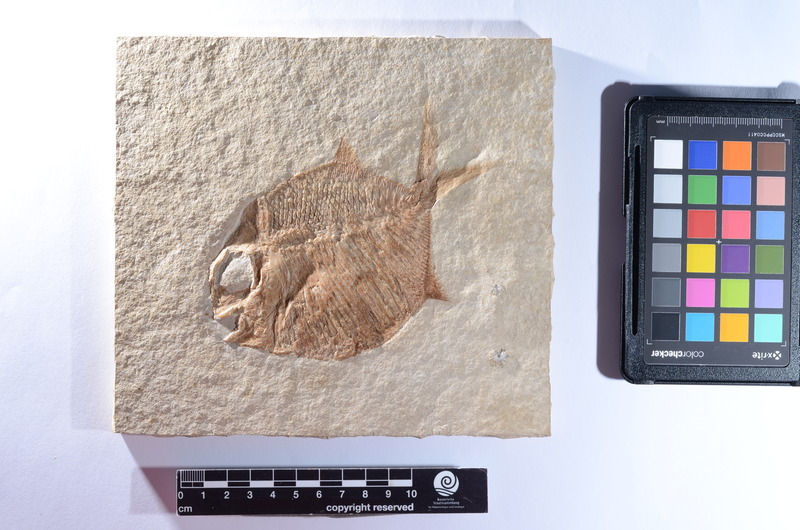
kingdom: Animalia
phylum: Chordata
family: Gyrodontidae
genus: Gyrodus
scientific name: Gyrodus hexagonus
